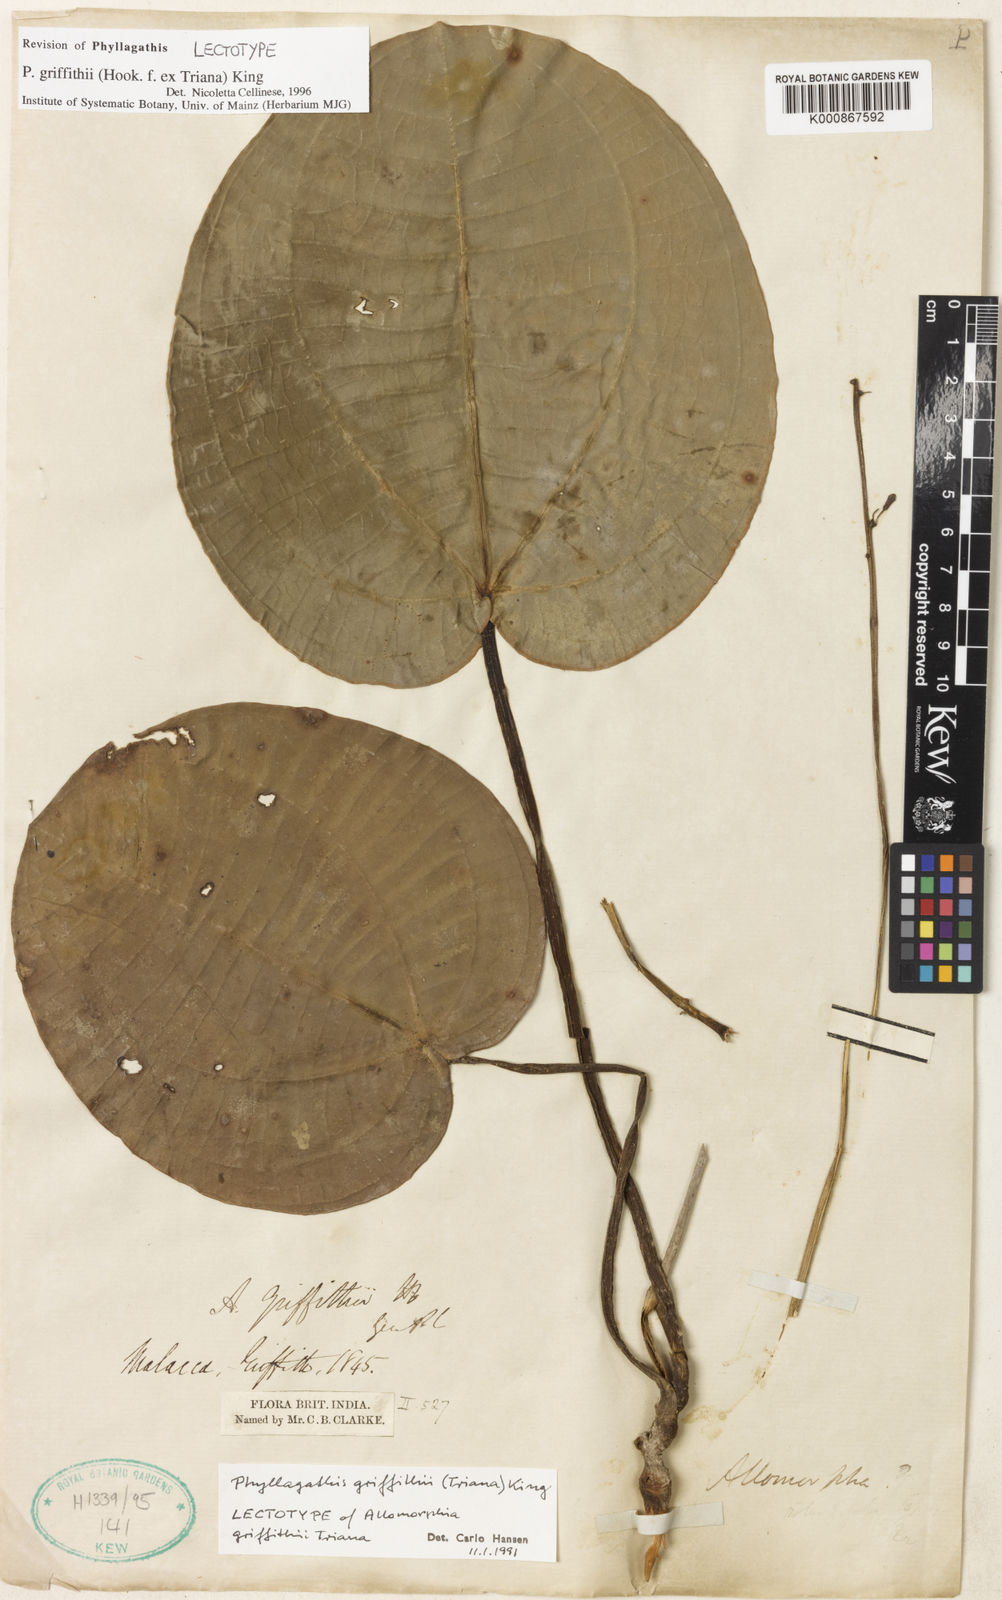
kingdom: Plantae
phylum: Tracheophyta
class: Magnoliopsida
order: Myrtales
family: Melastomataceae
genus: Phyllagathis
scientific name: Phyllagathis griffithii
